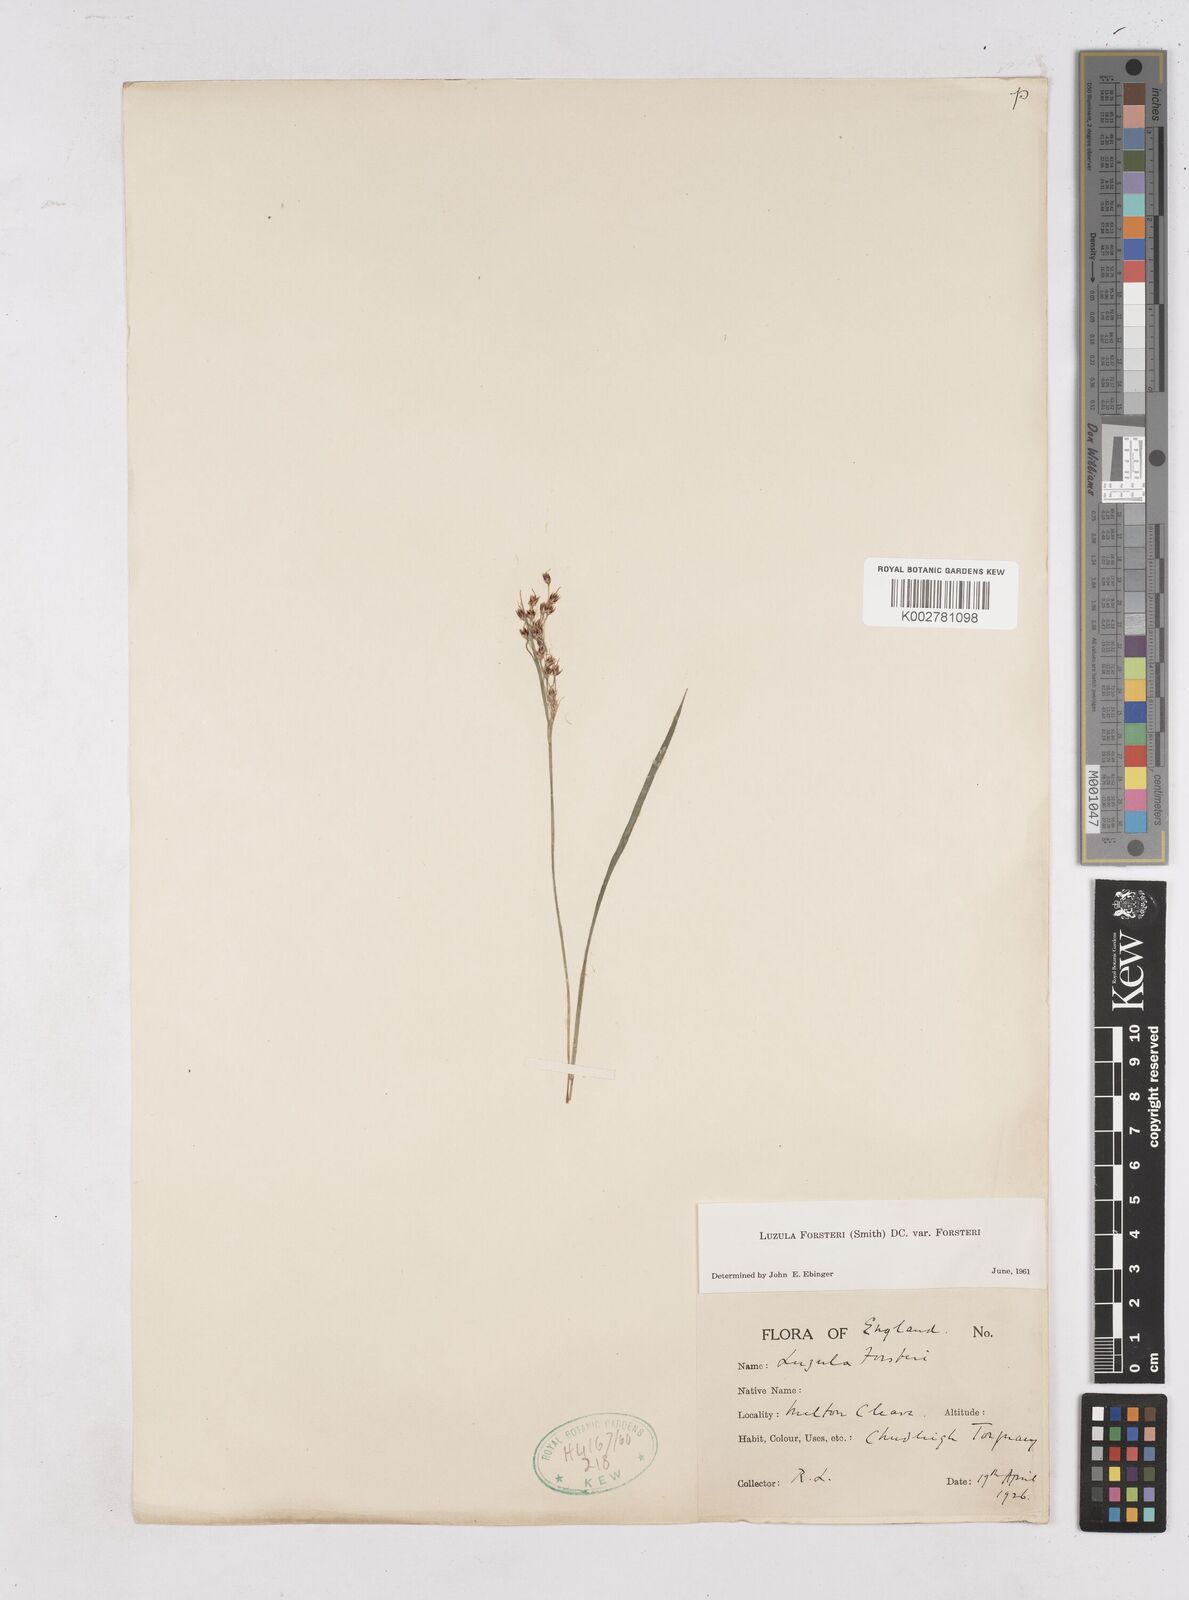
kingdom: Plantae
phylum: Tracheophyta
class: Liliopsida
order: Poales
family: Juncaceae
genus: Luzula
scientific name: Luzula forsteri
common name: Southern wood-rush
